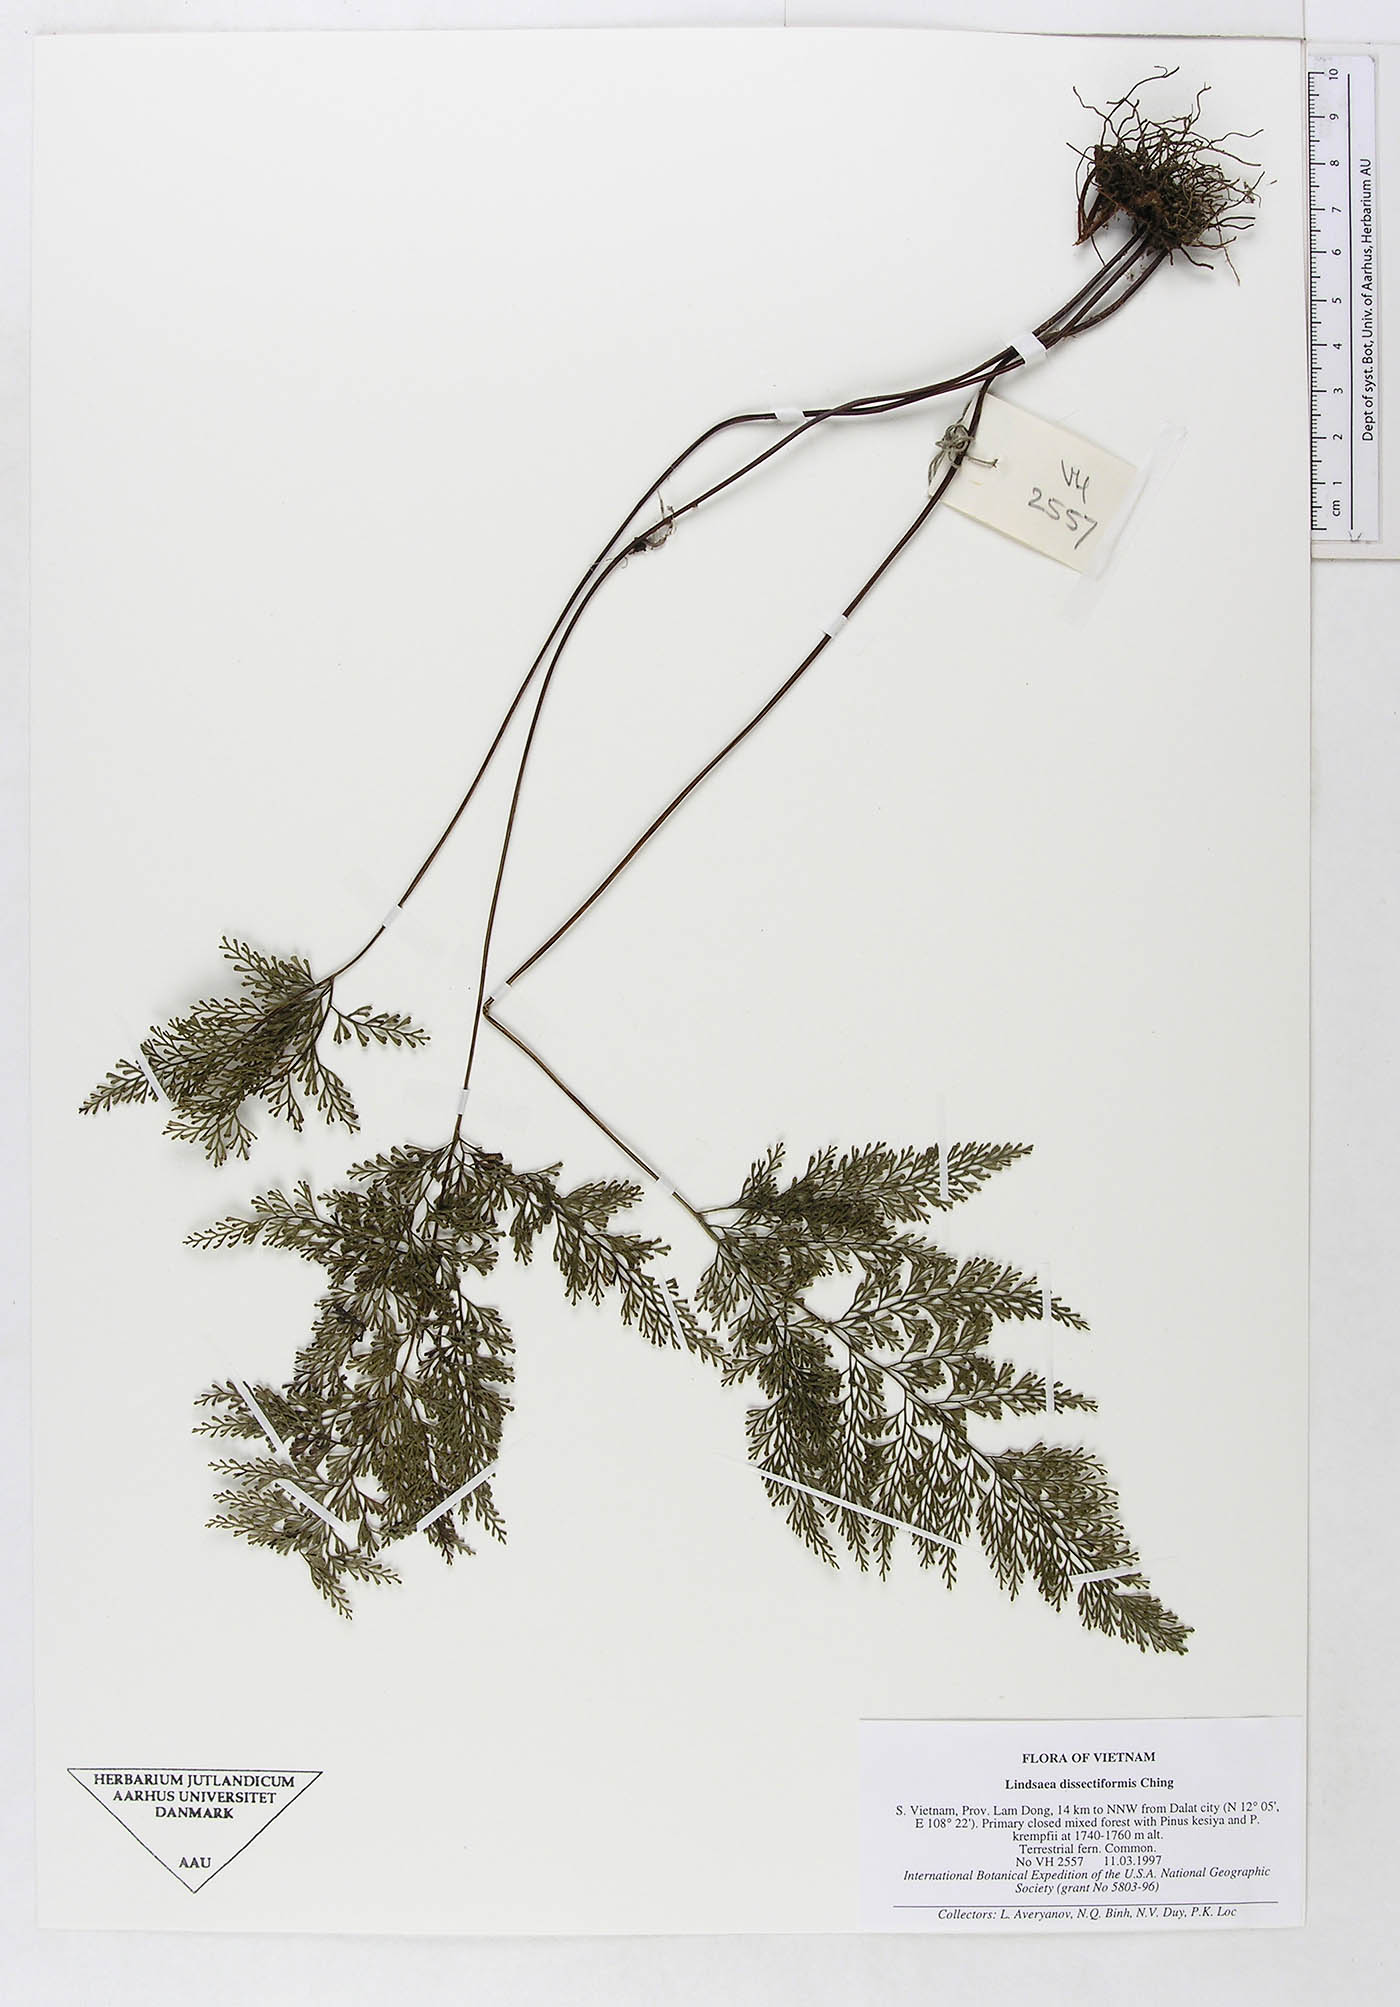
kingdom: Plantae
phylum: Tracheophyta
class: Polypodiopsida
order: Polypodiales
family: Dennstaedtiaceae
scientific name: Dennstaedtiaceae
